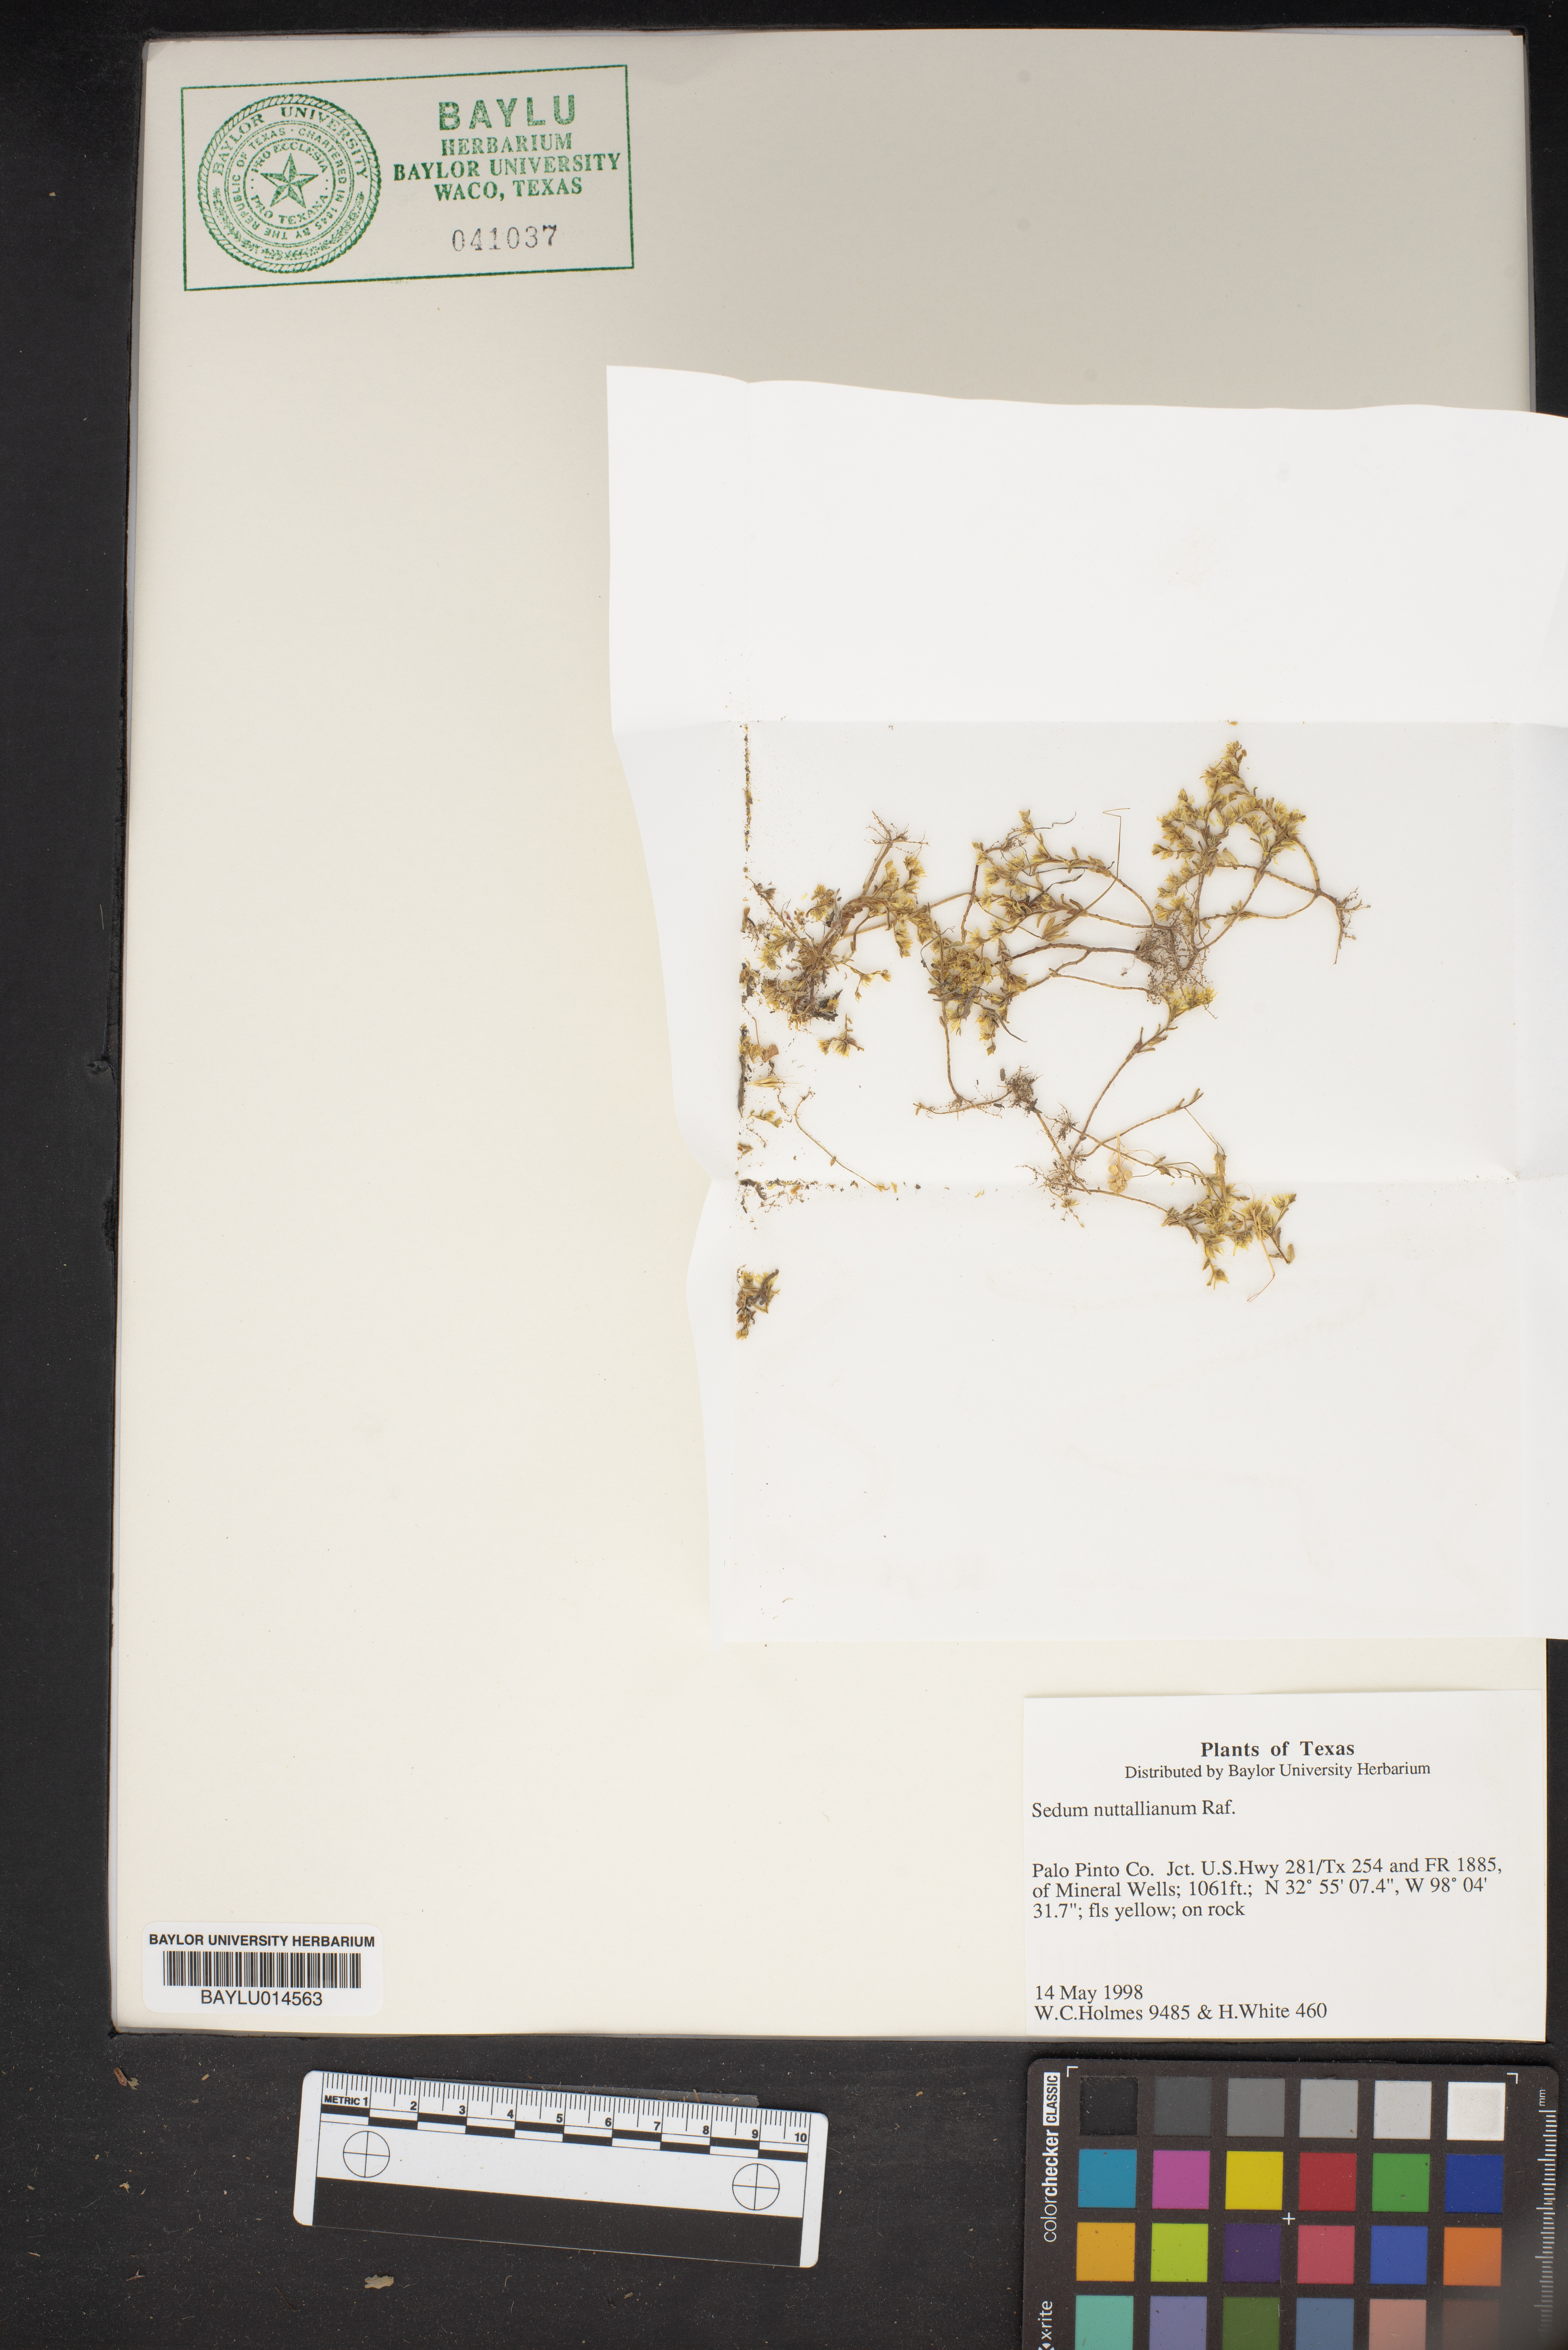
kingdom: Plantae
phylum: Tracheophyta
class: Magnoliopsida
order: Saxifragales
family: Crassulaceae
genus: Sedum
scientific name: Sedum nuttallii
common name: Yellow stonecrop
